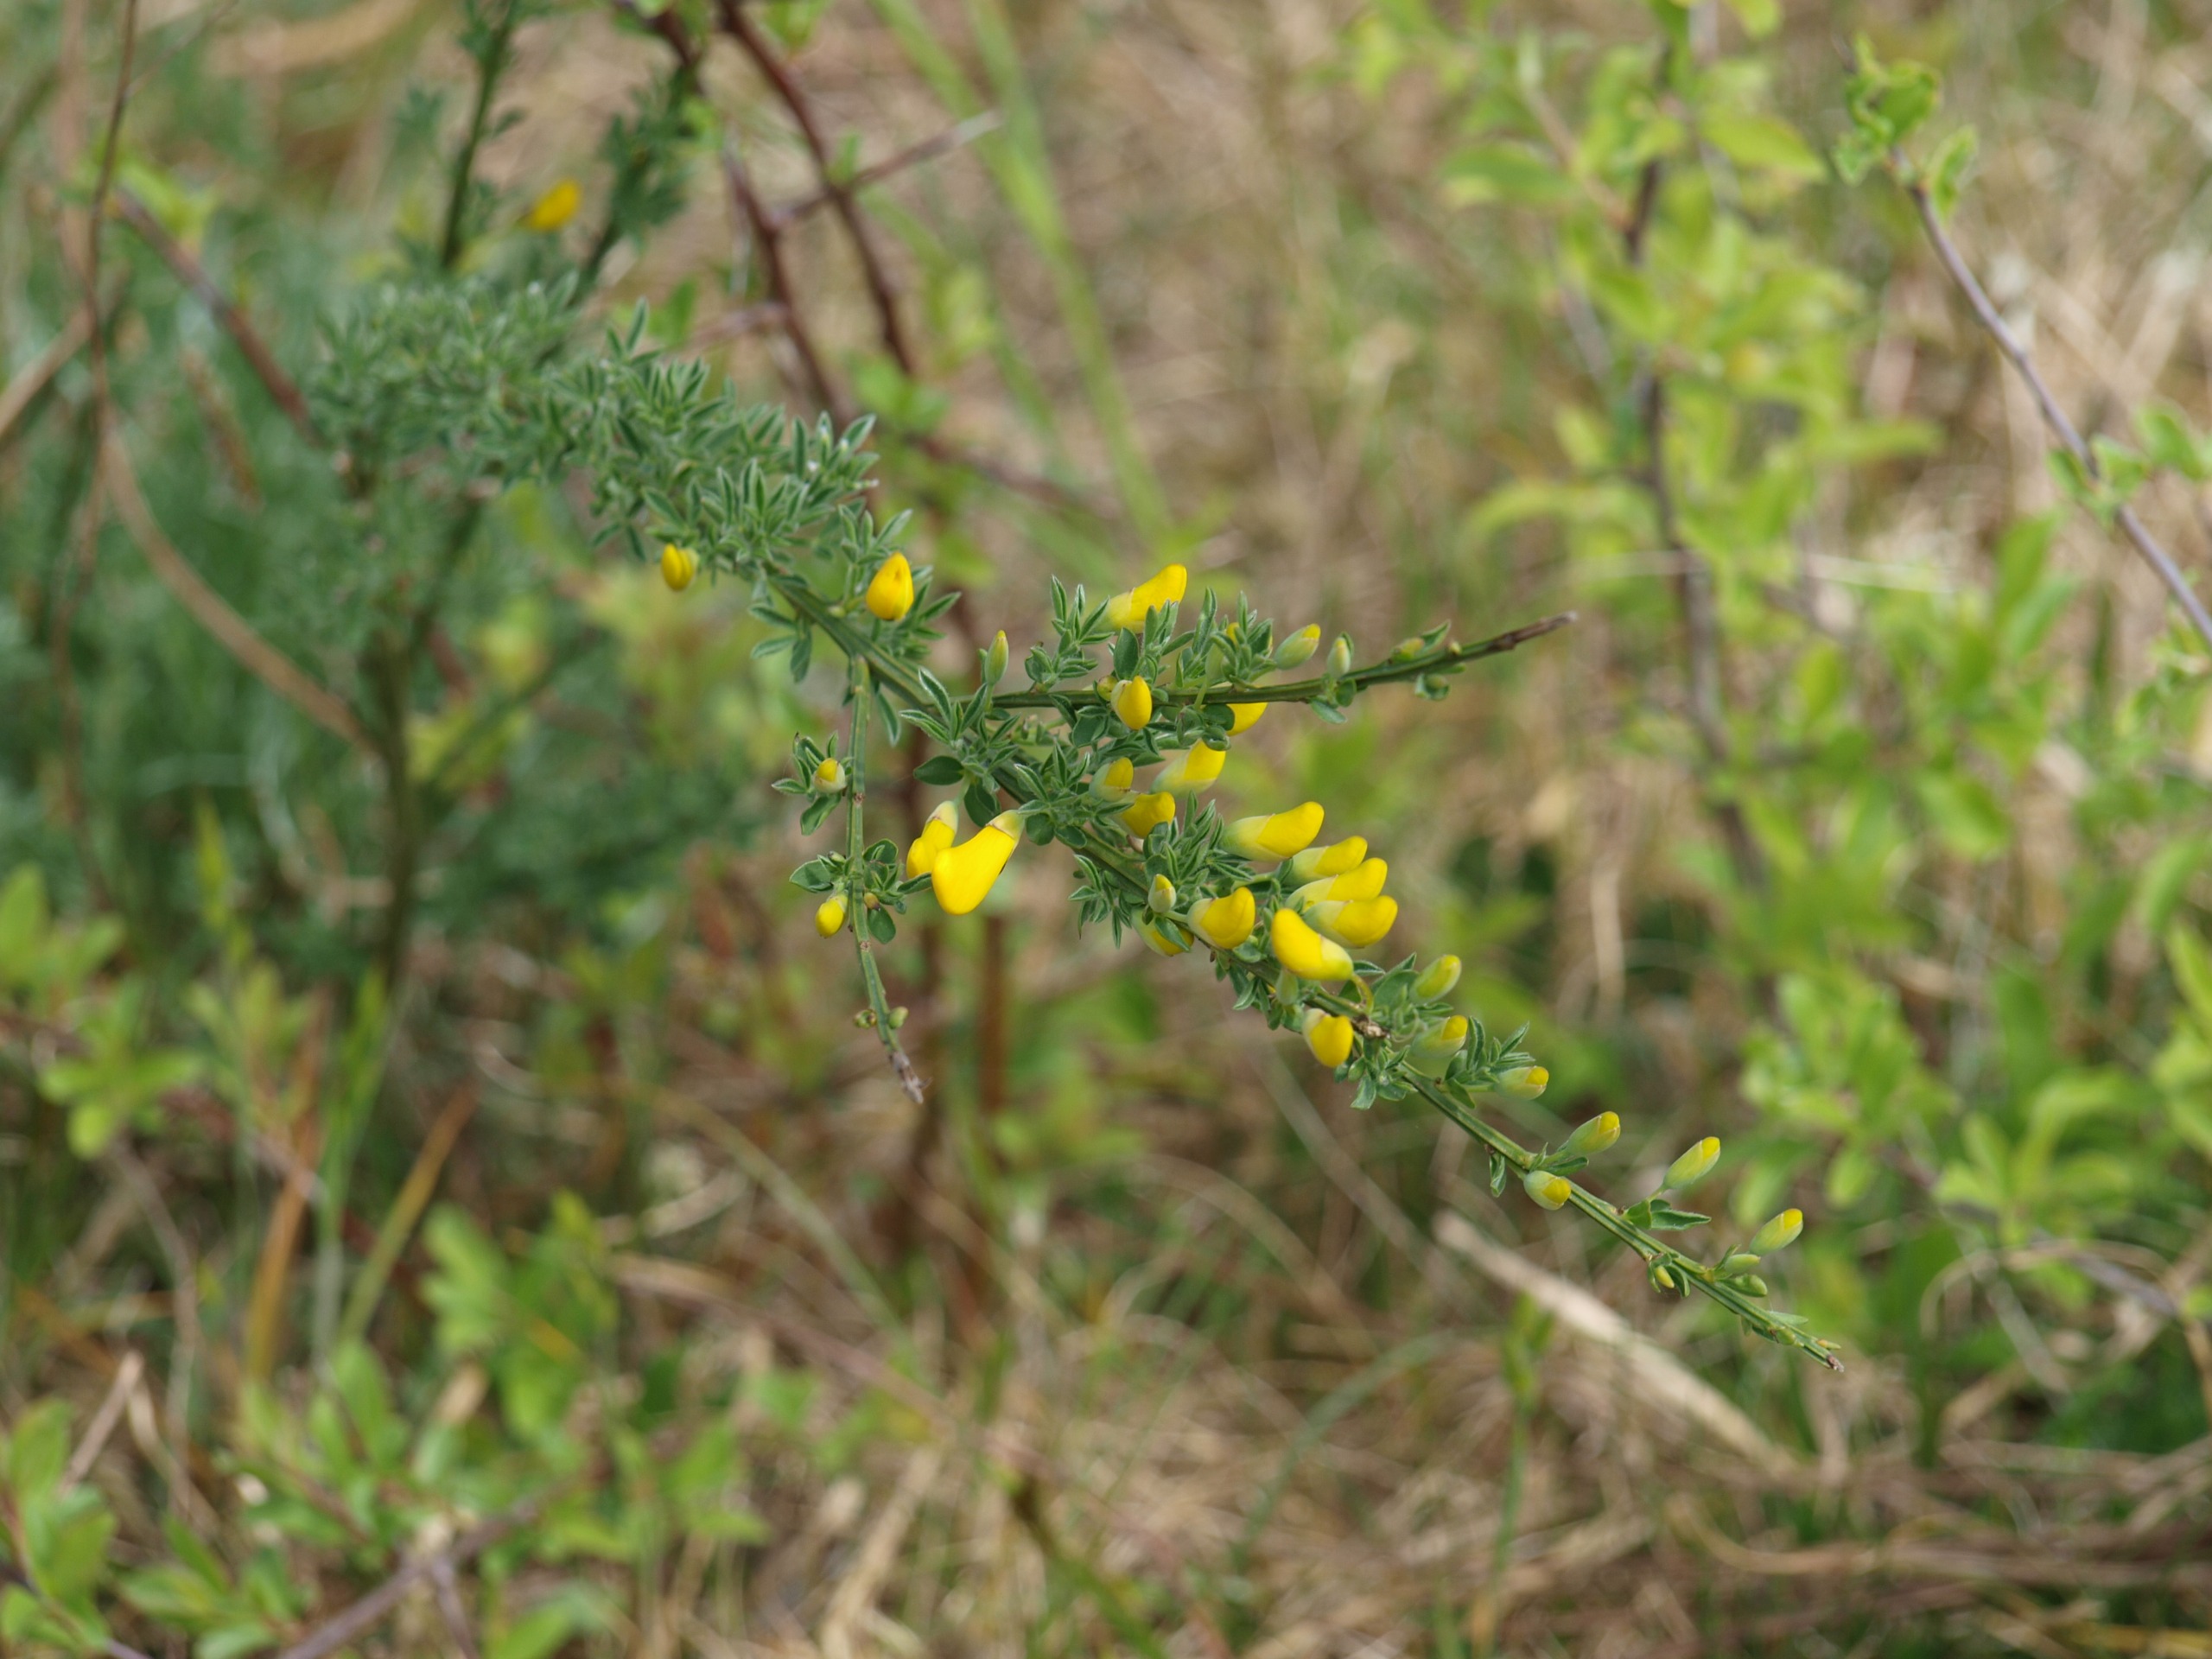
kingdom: Plantae
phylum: Tracheophyta
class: Magnoliopsida
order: Fabales
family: Fabaceae
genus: Cytisus
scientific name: Cytisus scoparius
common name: Almindelig gyvel
